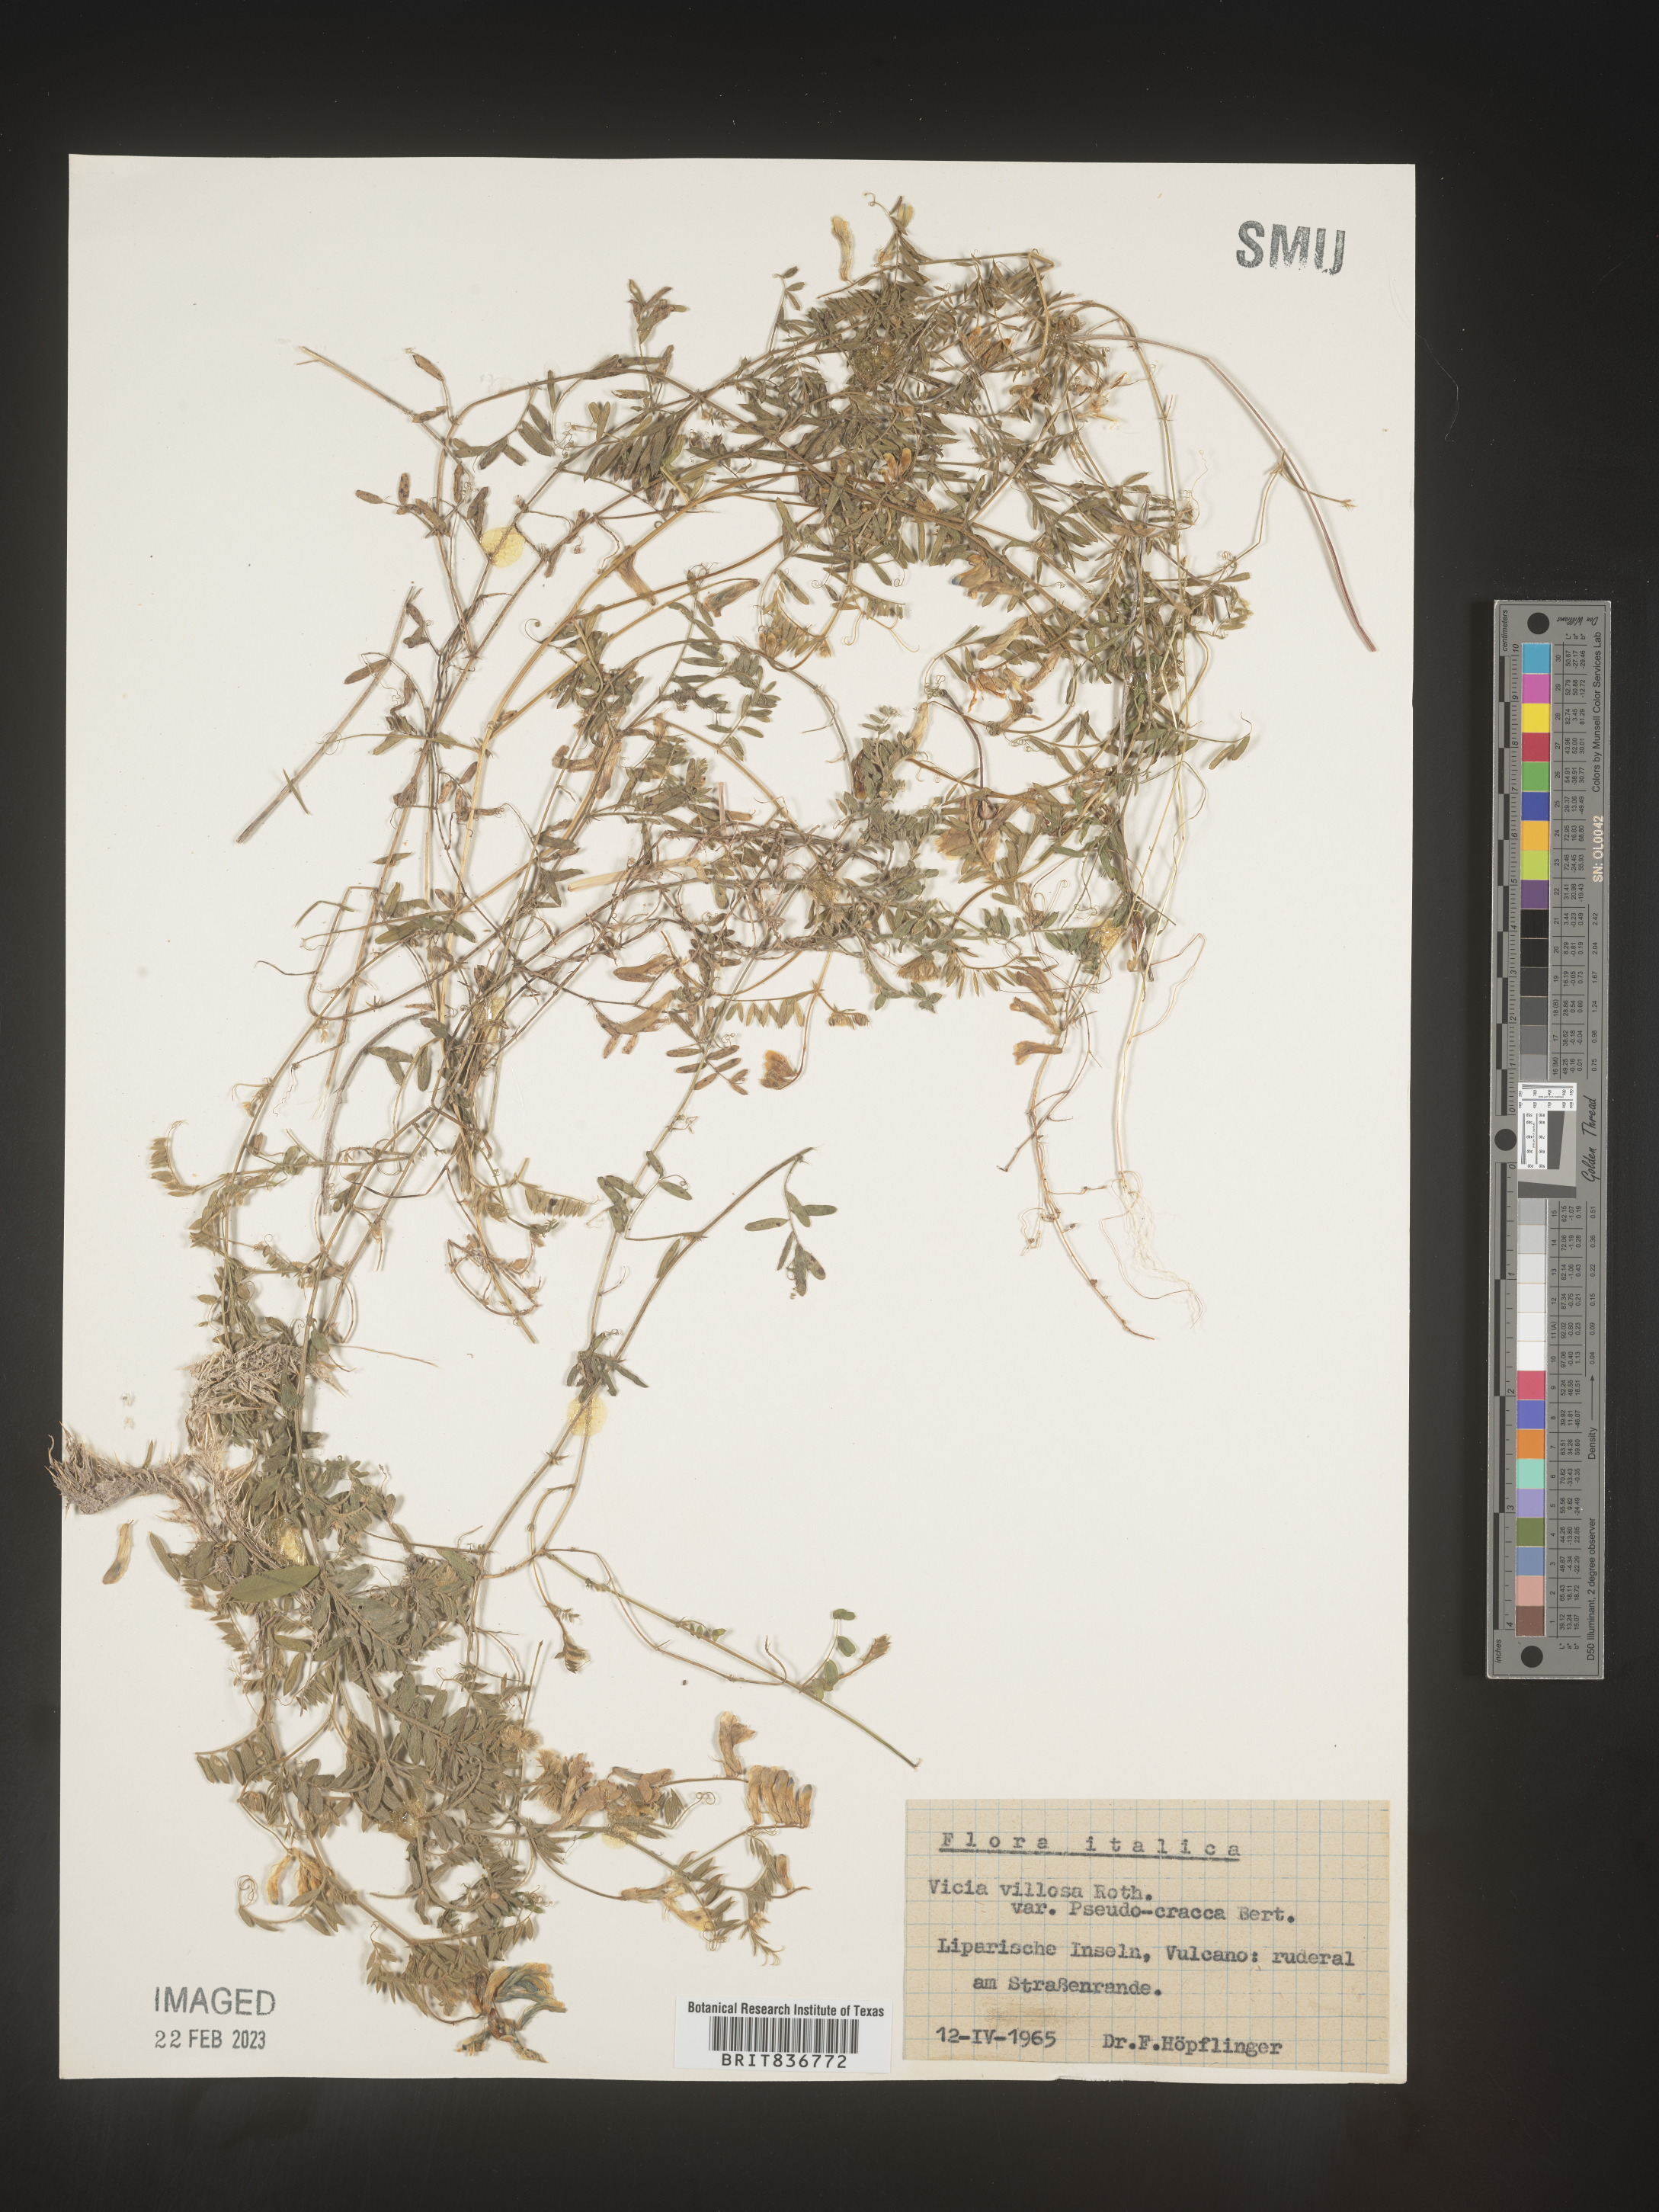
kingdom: Plantae
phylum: Tracheophyta
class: Magnoliopsida
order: Fabales
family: Fabaceae
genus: Vicia
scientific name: Vicia
